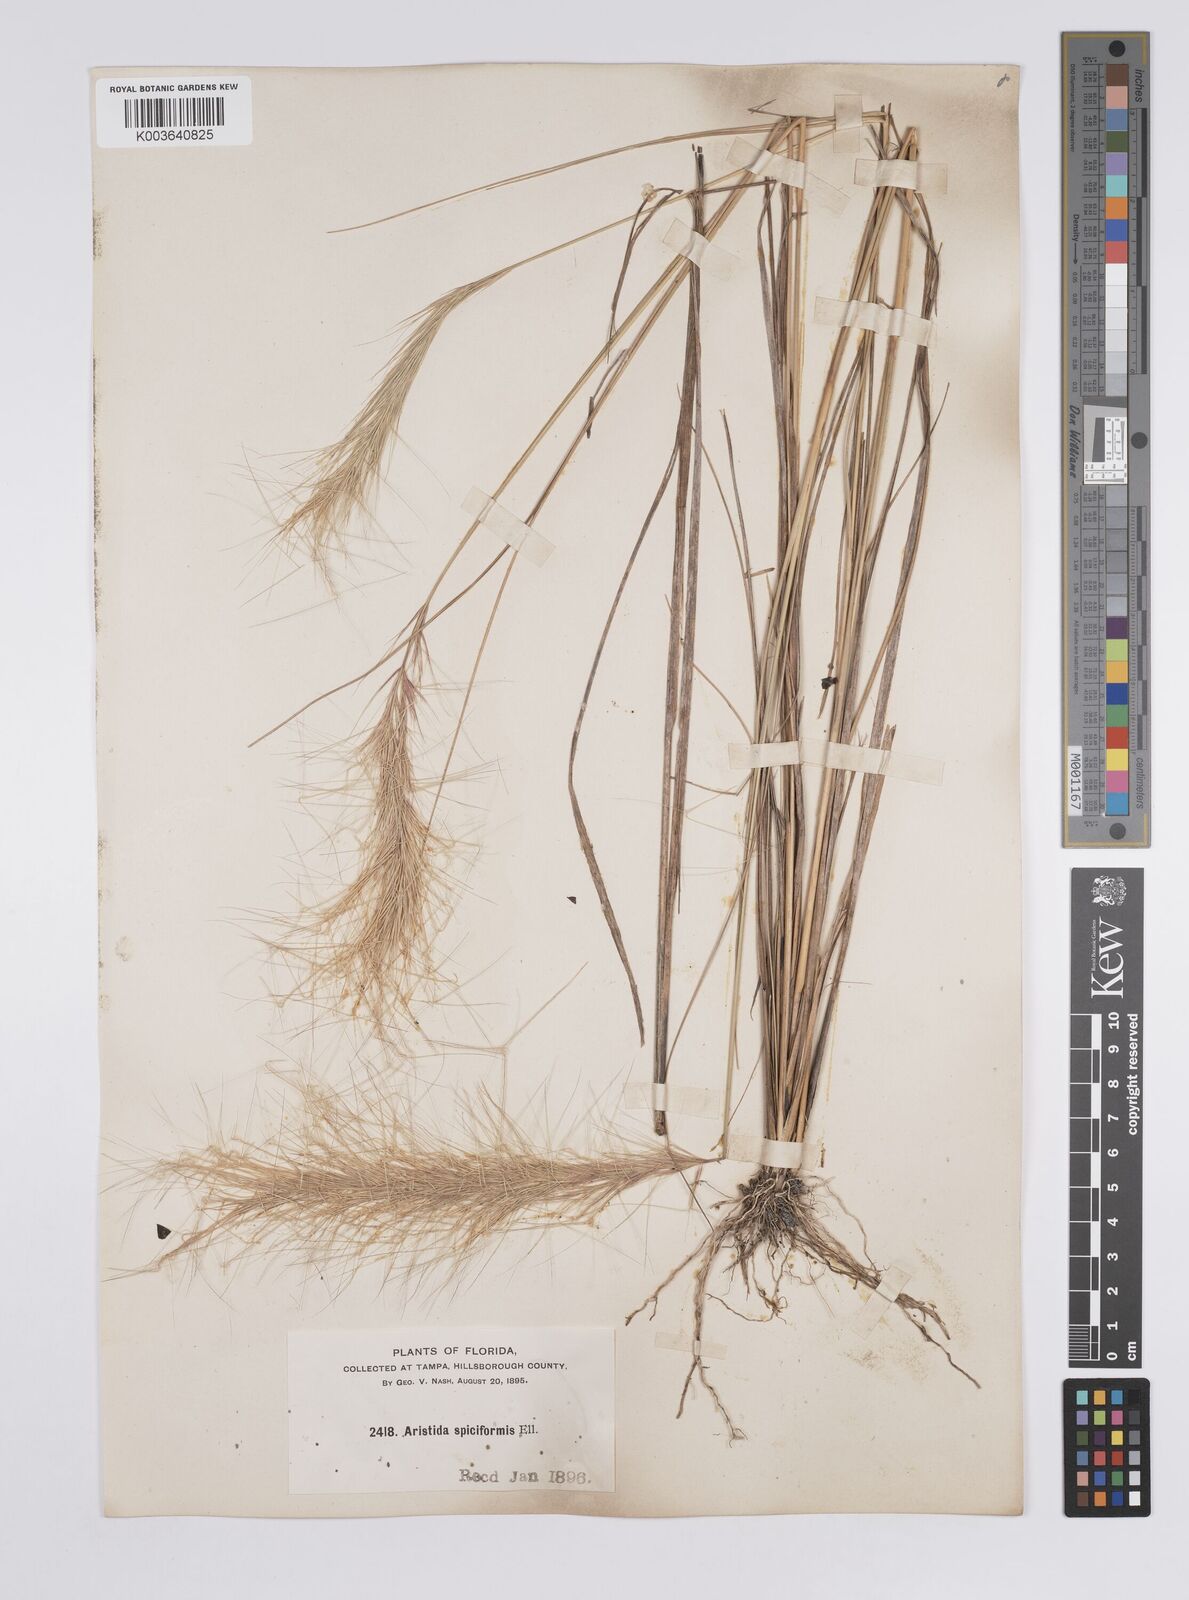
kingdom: Plantae
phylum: Tracheophyta
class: Liliopsida
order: Poales
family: Poaceae
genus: Aristida
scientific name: Aristida spiciformis
